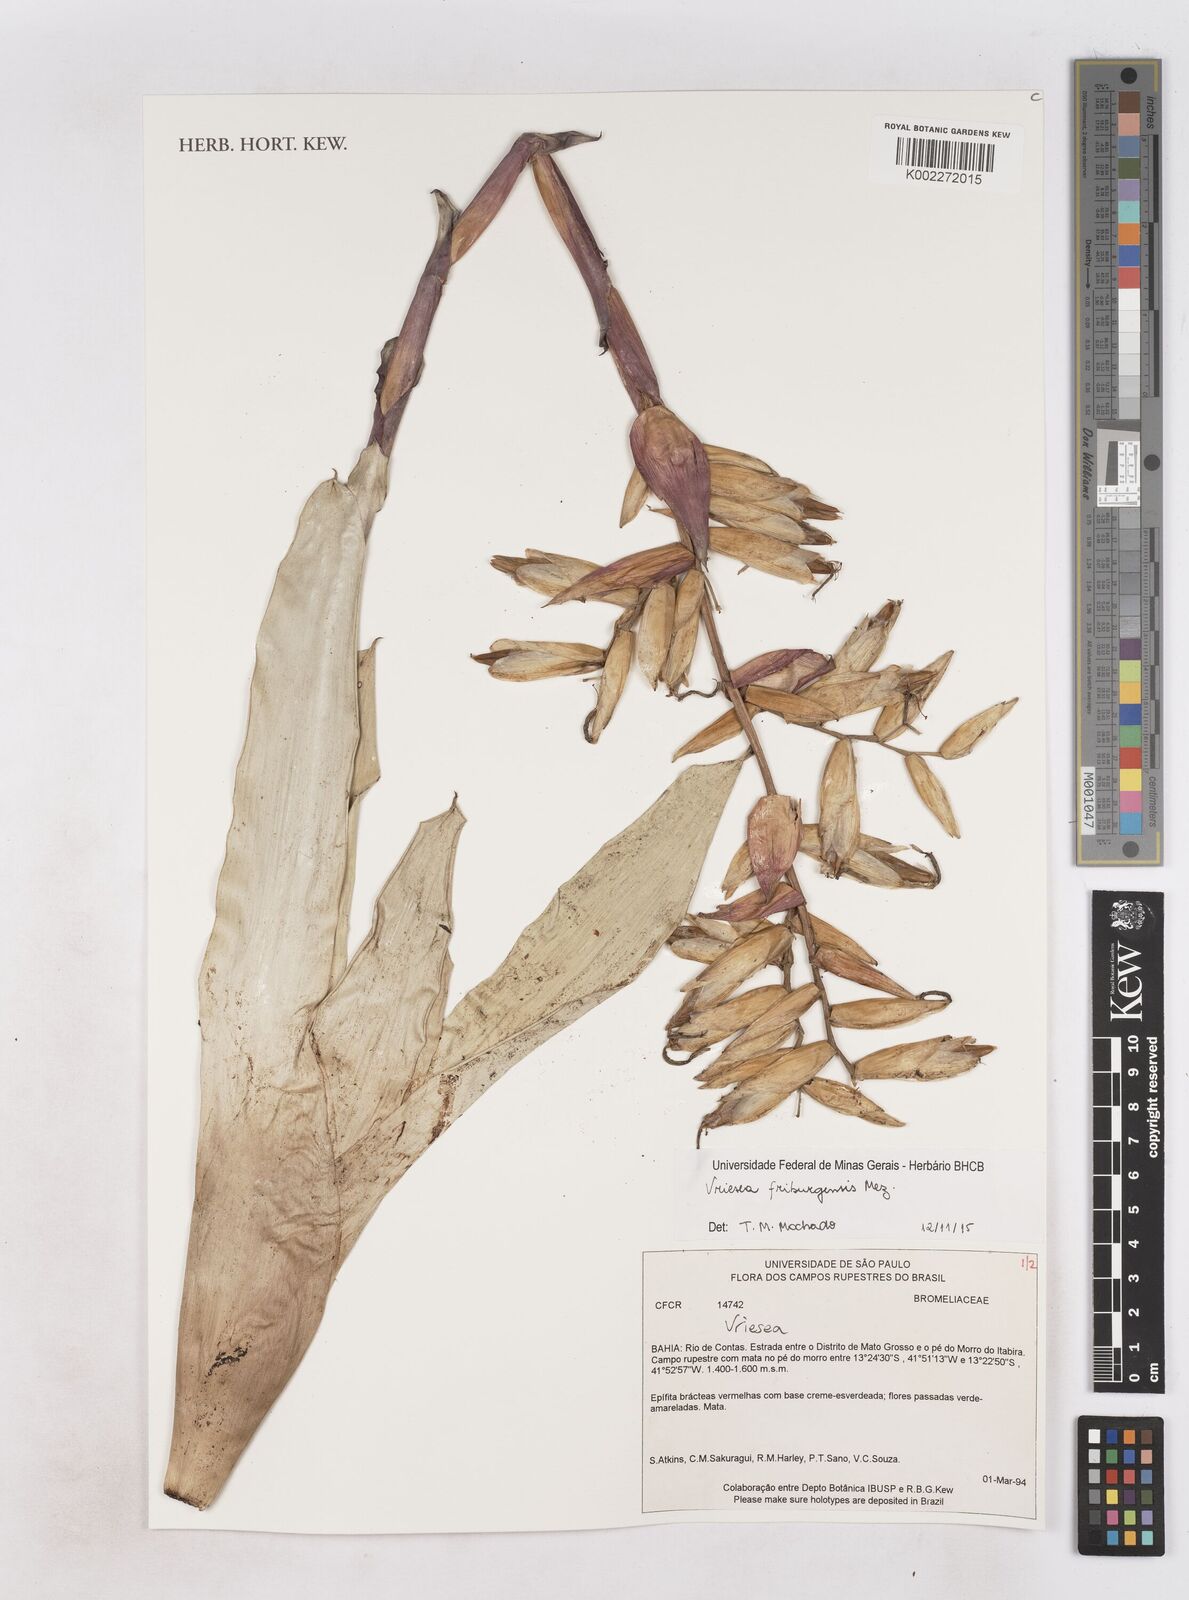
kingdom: Plantae
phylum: Tracheophyta
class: Liliopsida
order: Poales
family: Bromeliaceae
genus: Vriesea
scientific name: Vriesea friburgensis
